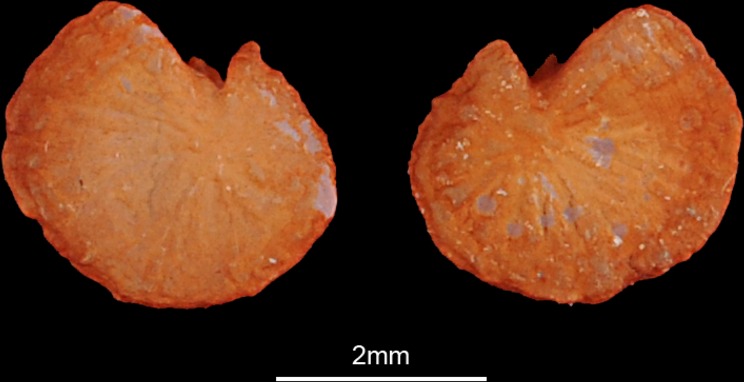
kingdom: Animalia
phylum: Chordata
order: Siluriformes
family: Siluridae
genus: Silurus
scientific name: Silurus triostegus
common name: Mesopotamian catfish
